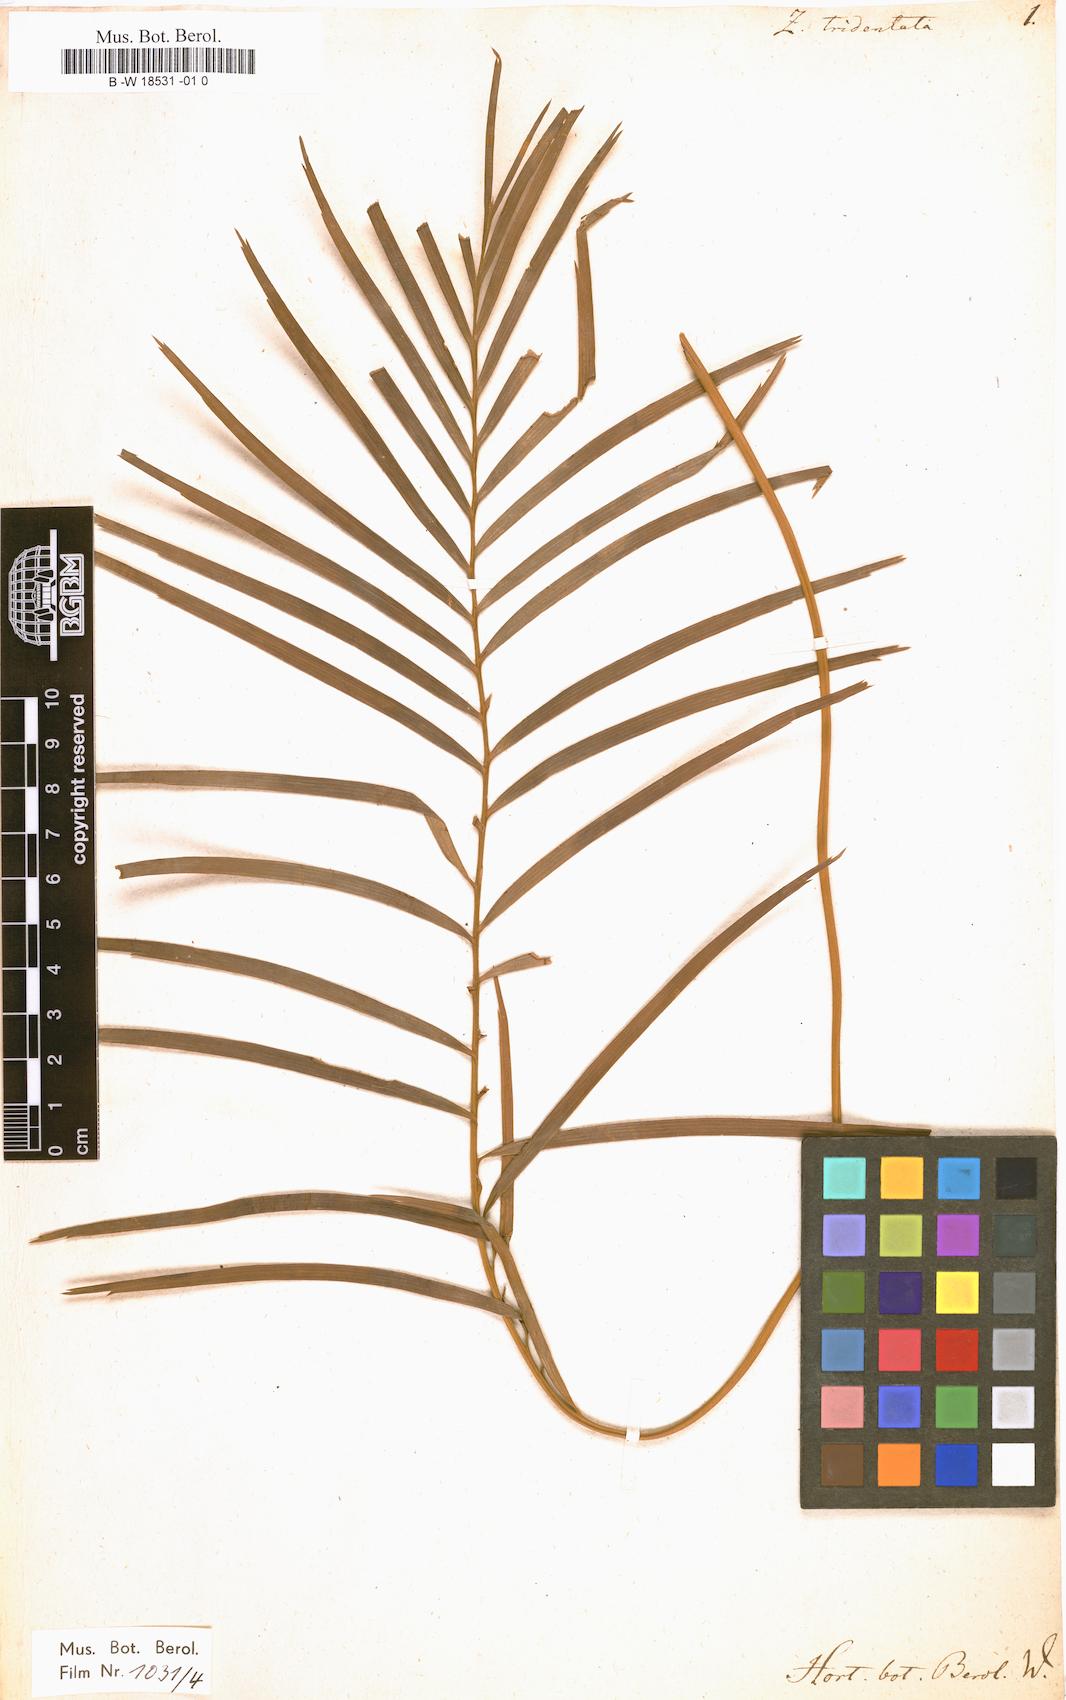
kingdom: Plantae
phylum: Tracheophyta
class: Cycadopsida
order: Cycadales
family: Zamiaceae
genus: Zamia
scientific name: Zamia tridentata
